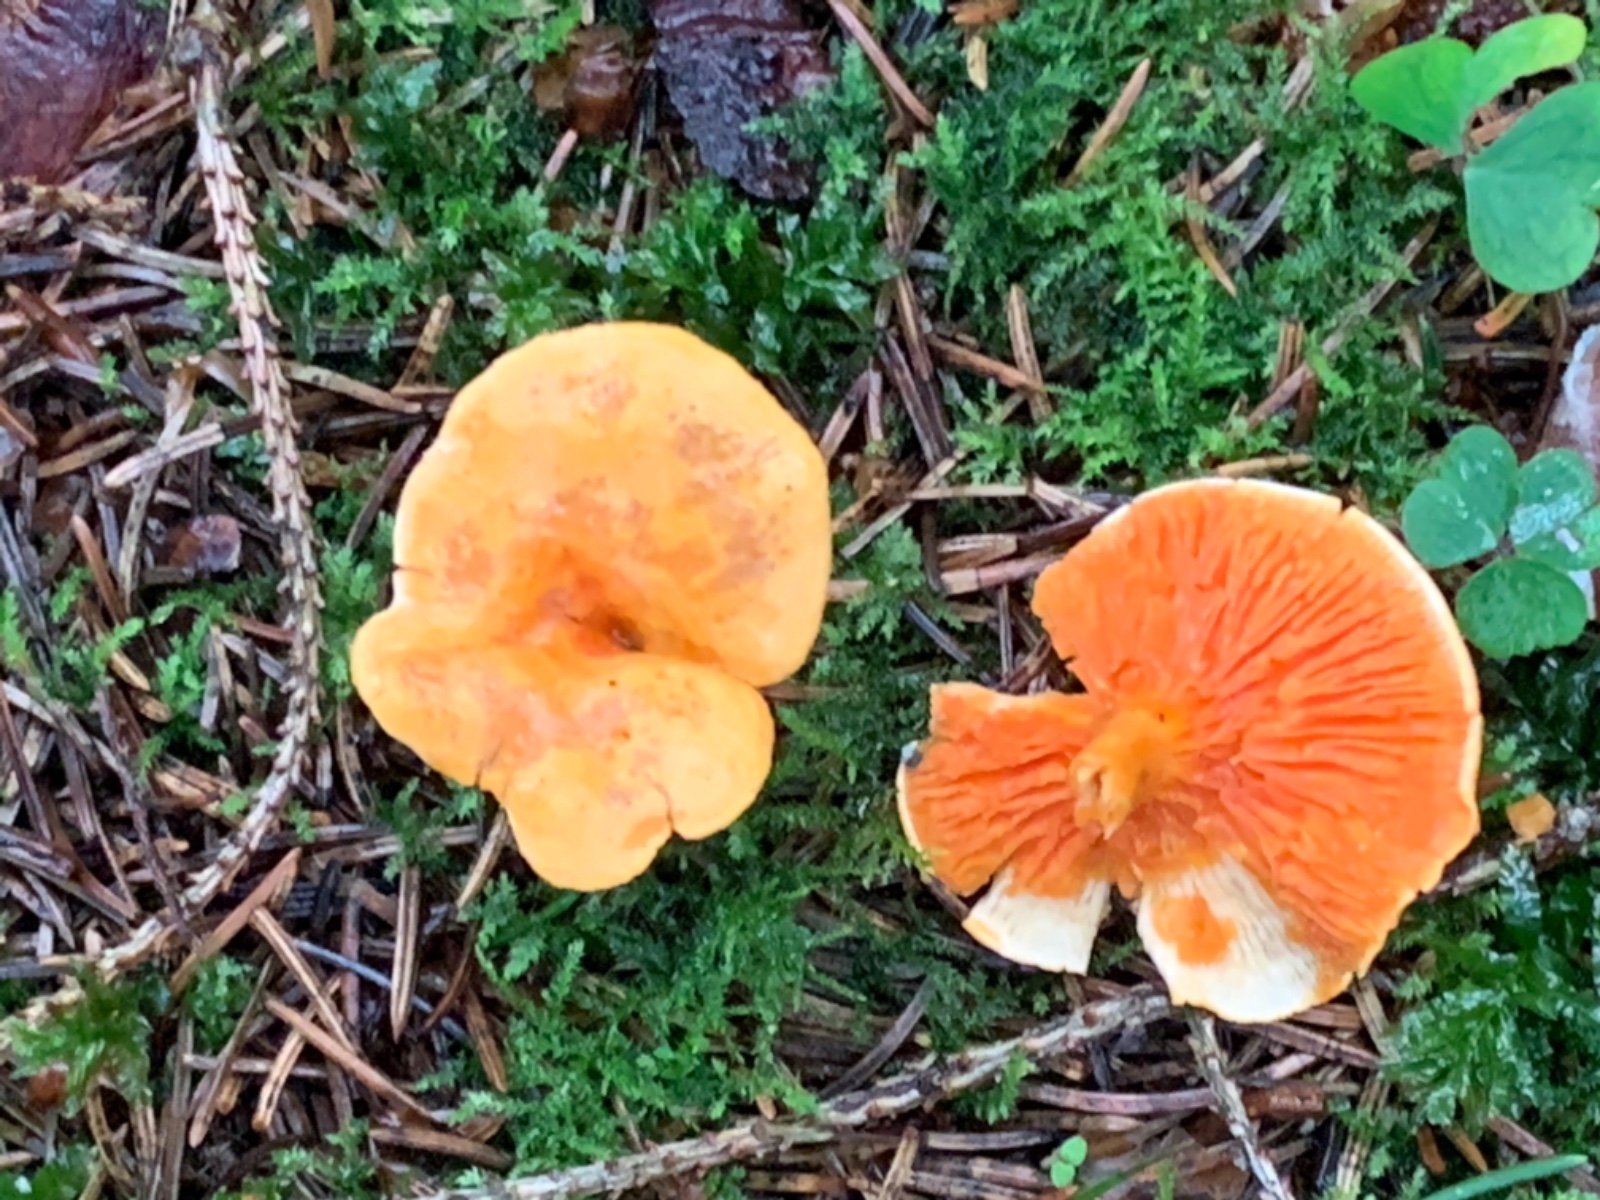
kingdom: Fungi
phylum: Basidiomycota
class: Agaricomycetes
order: Boletales
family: Hygrophoropsidaceae
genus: Hygrophoropsis
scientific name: Hygrophoropsis aurantiaca
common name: almindelig orangekantarel
